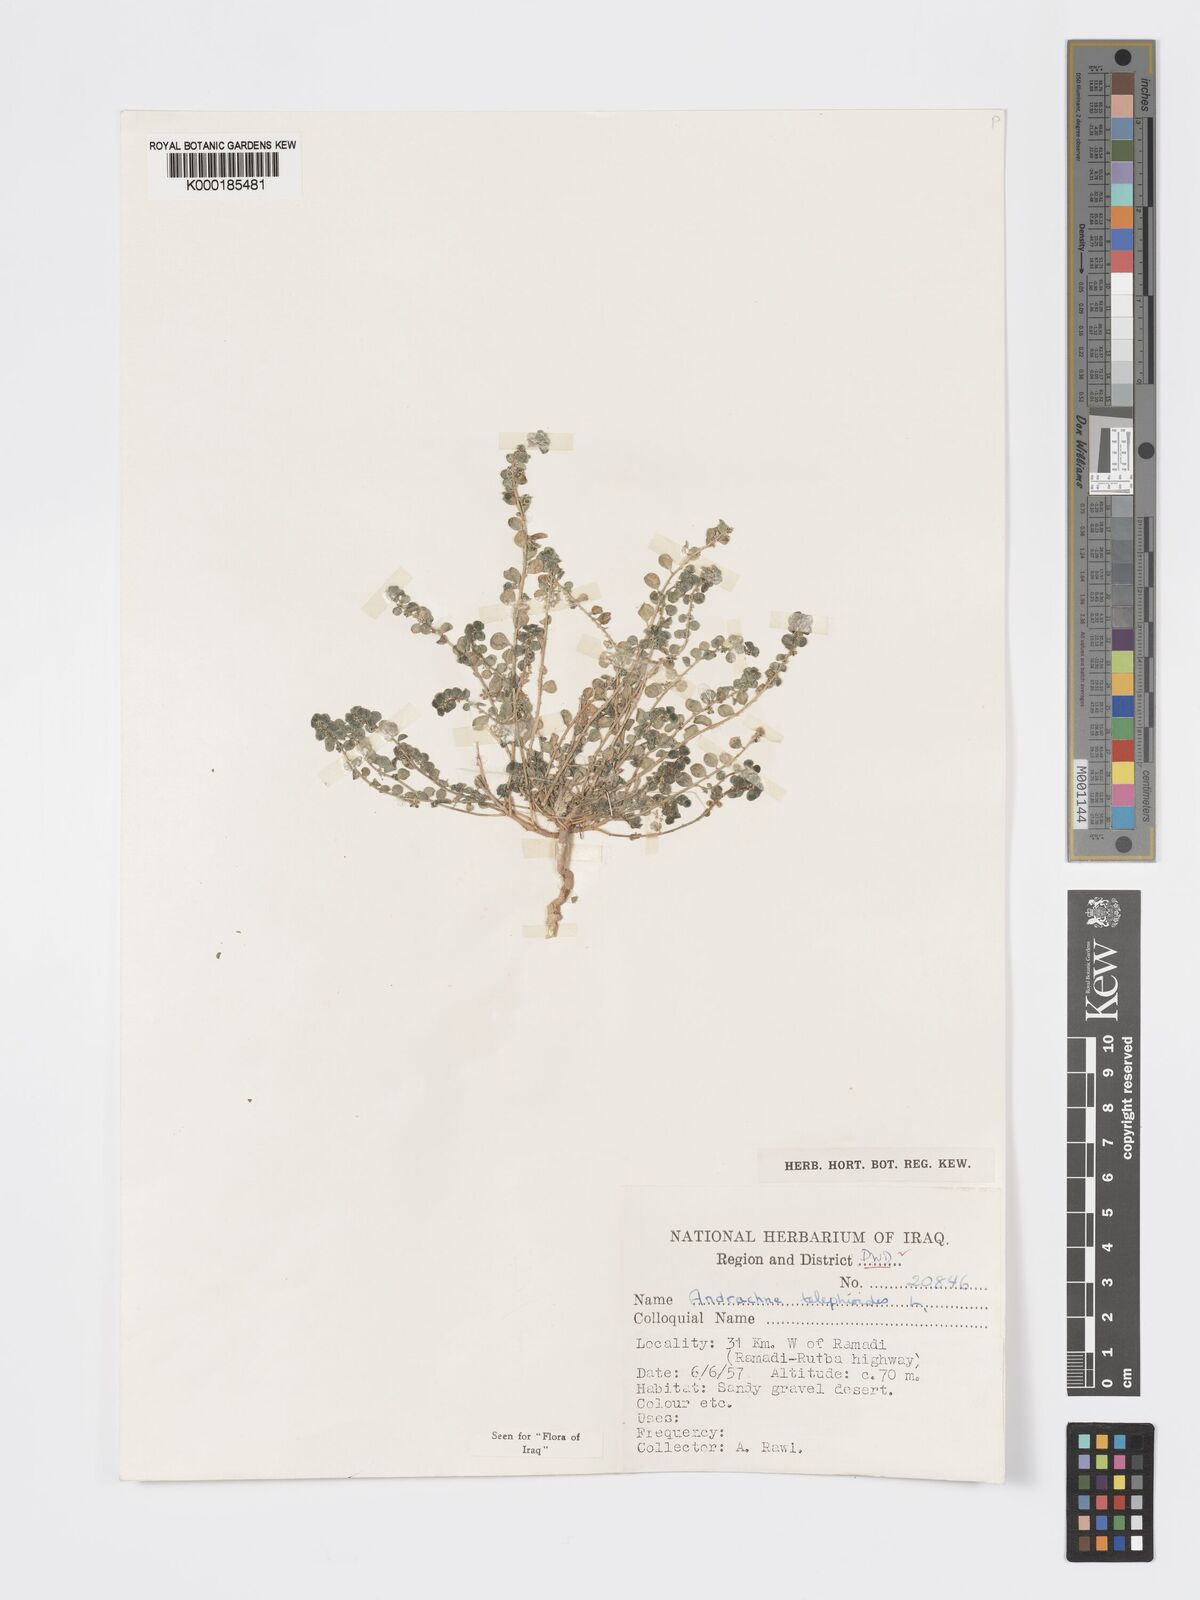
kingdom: Plantae
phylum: Tracheophyta
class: Magnoliopsida
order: Malpighiales
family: Phyllanthaceae
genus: Andrachne
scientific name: Andrachne telephioides
